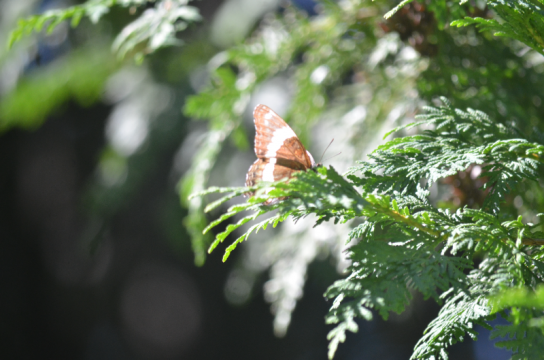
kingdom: Animalia
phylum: Arthropoda
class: Insecta
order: Lepidoptera
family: Nymphalidae
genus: Limenitis
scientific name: Limenitis arthemis
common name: Red-spotted Admiral
